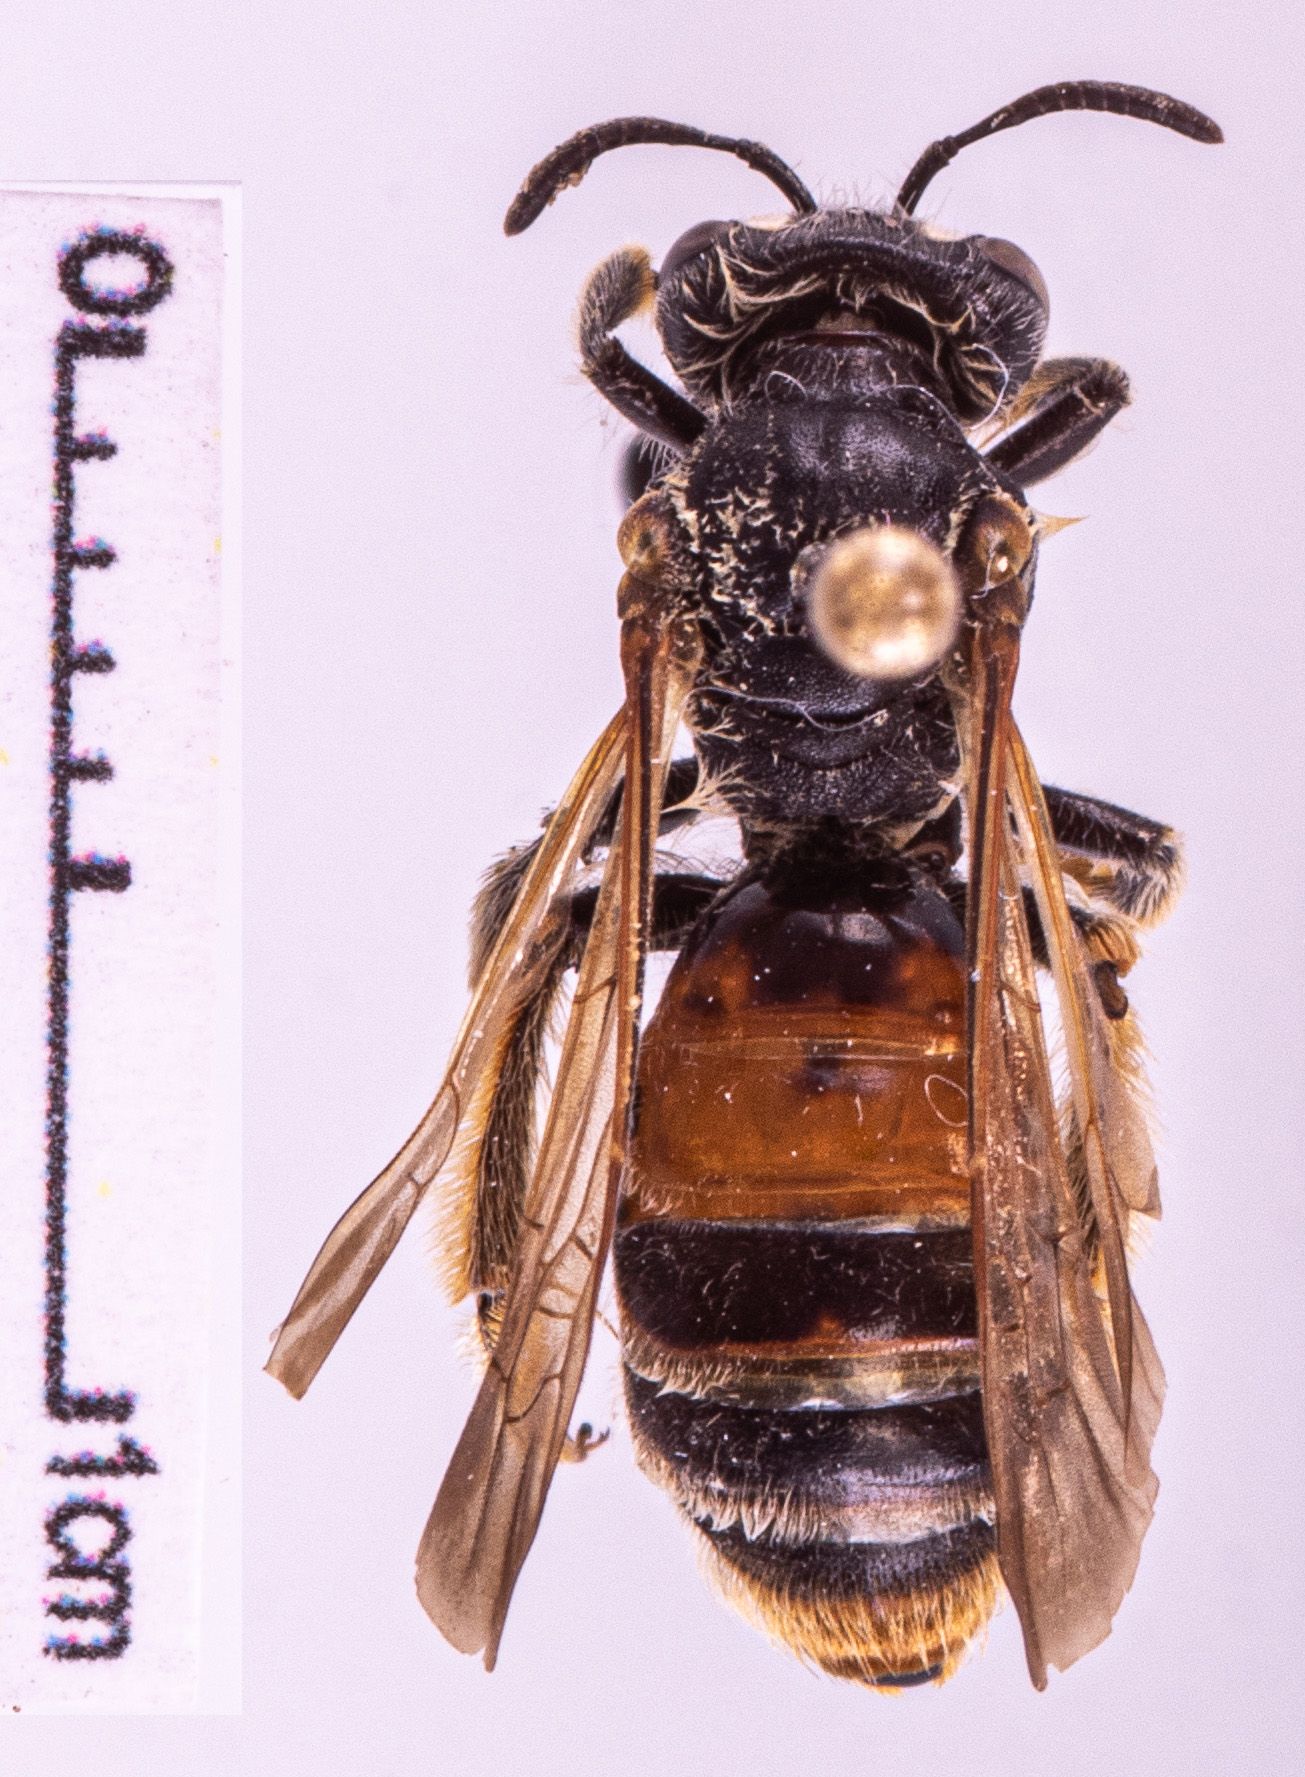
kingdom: Animalia
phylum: Arthropoda
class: Insecta
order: Hymenoptera
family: Andrenidae
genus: Andrena
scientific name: Andrena hattorfiana
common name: Large scabious mining bee
